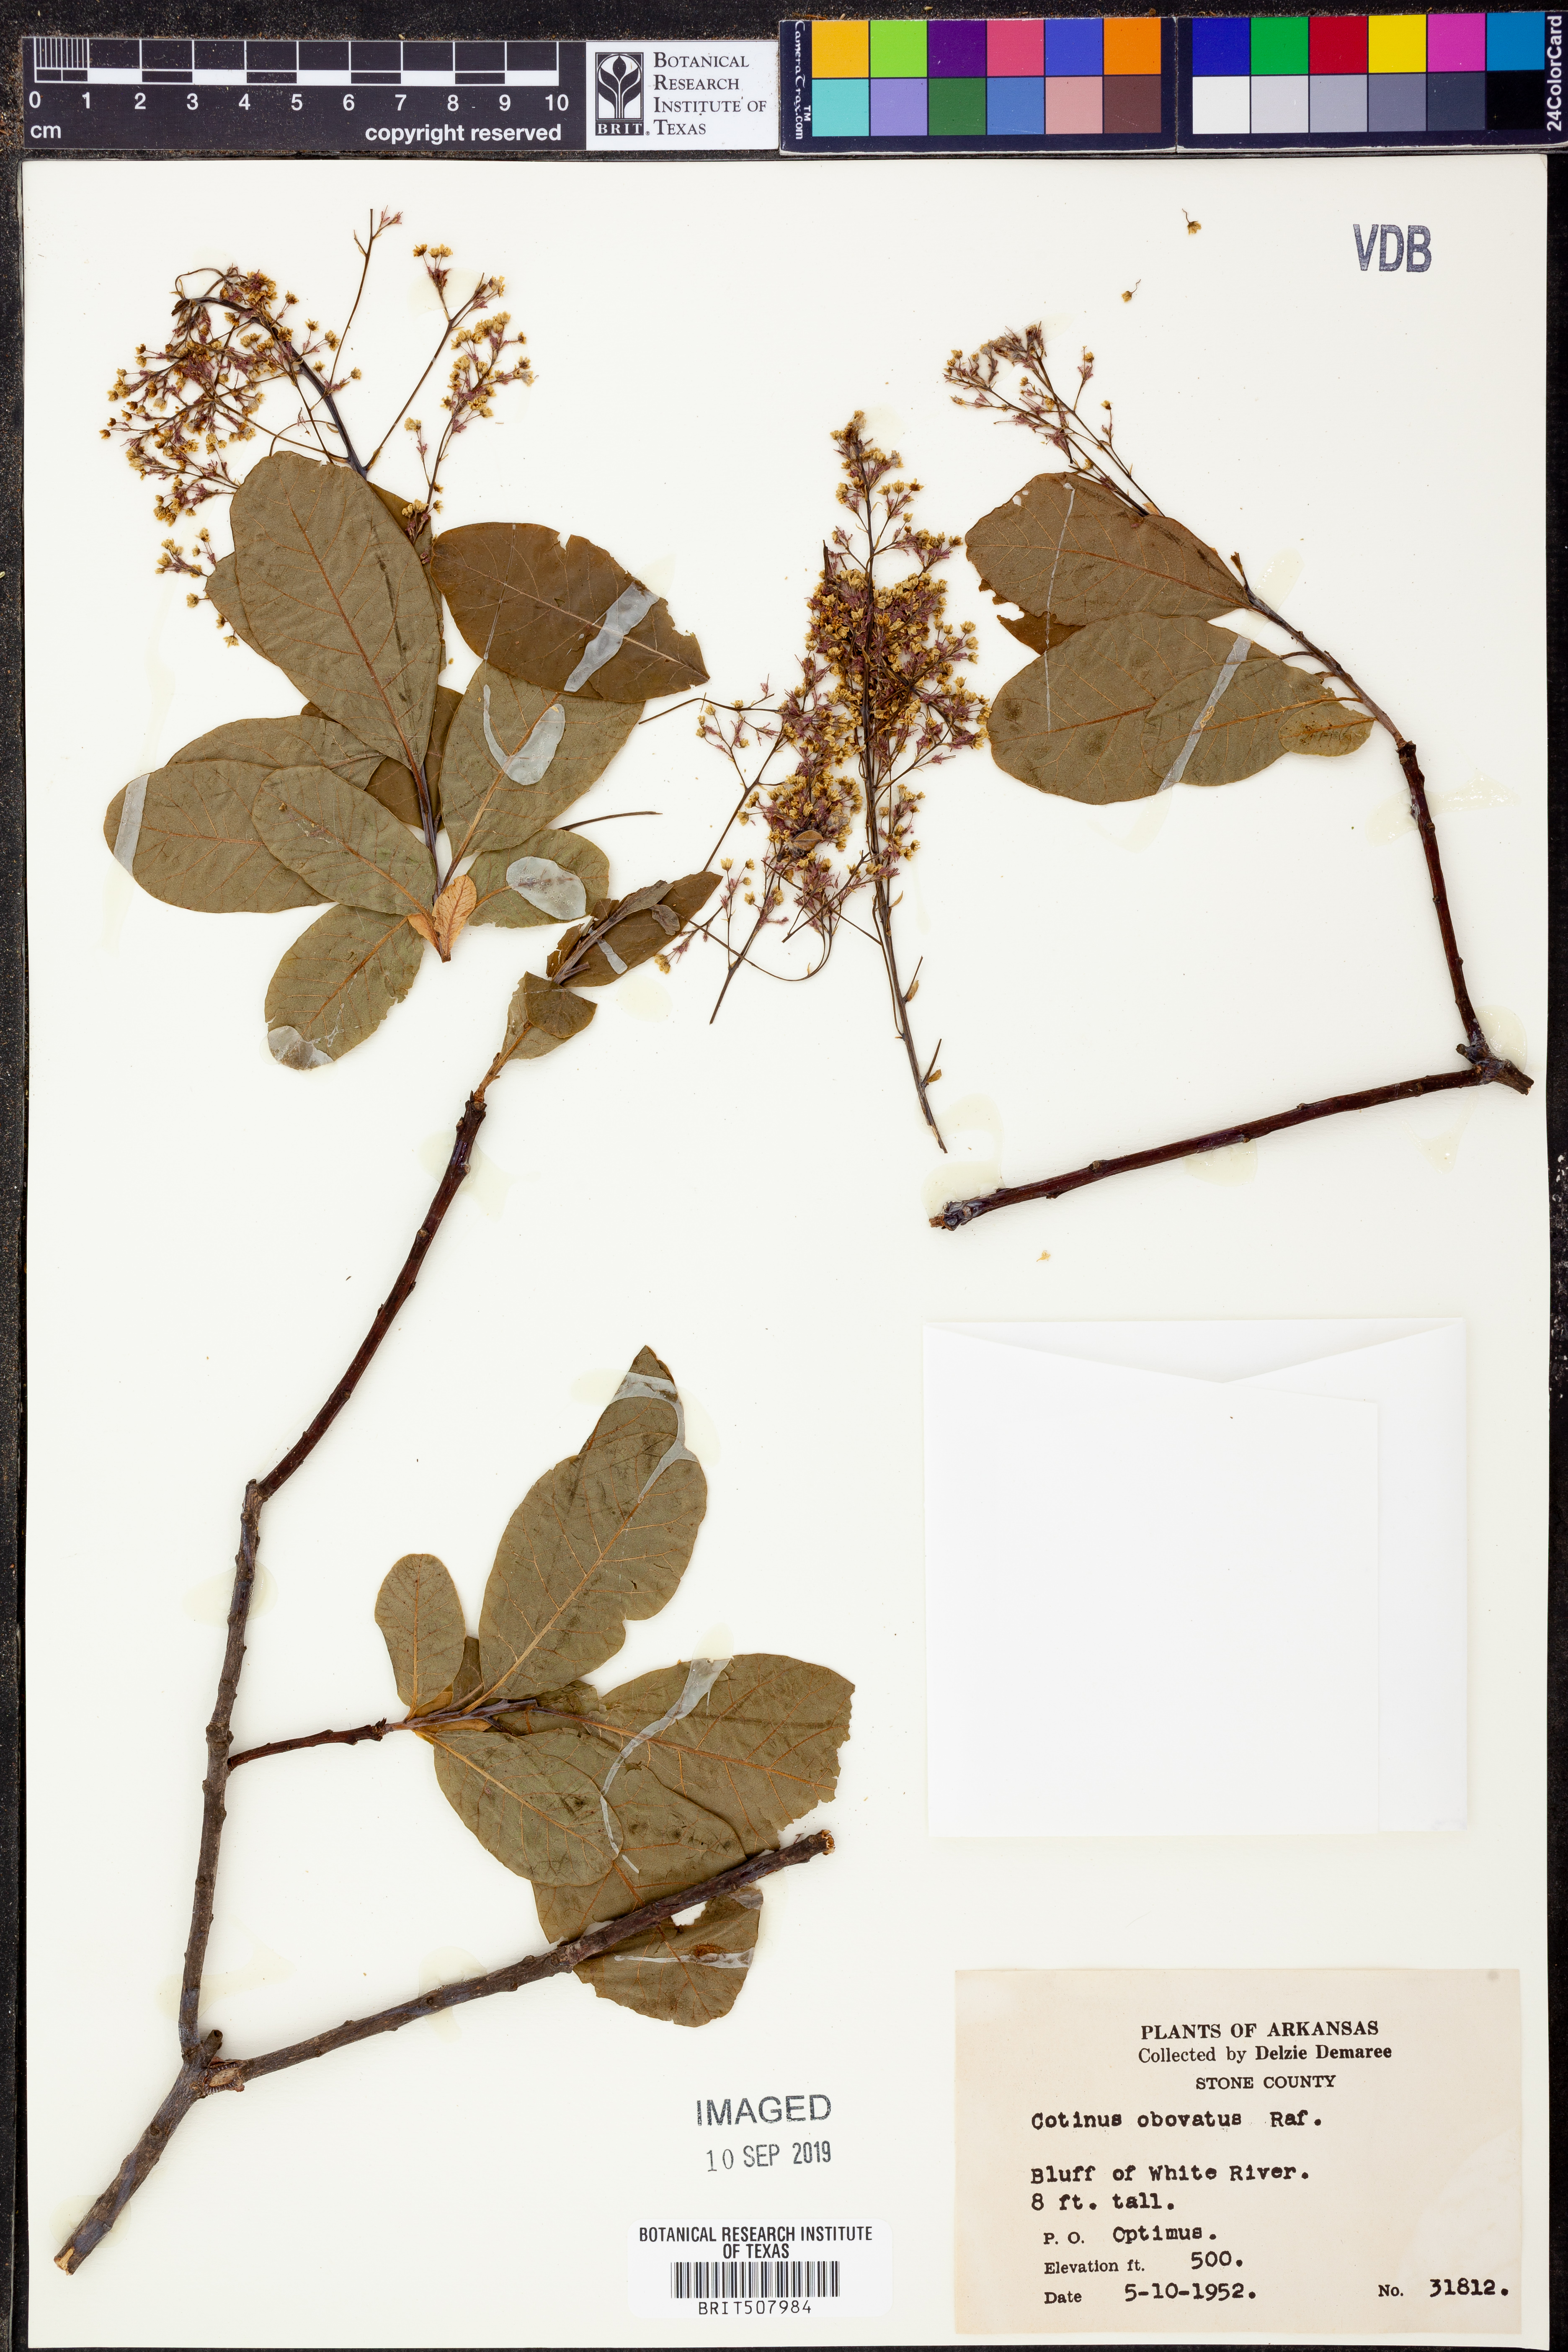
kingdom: Plantae
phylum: Tracheophyta
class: Magnoliopsida
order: Sapindales
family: Anacardiaceae
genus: Cotinus
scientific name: Cotinus obovatus
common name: Chittamwood
